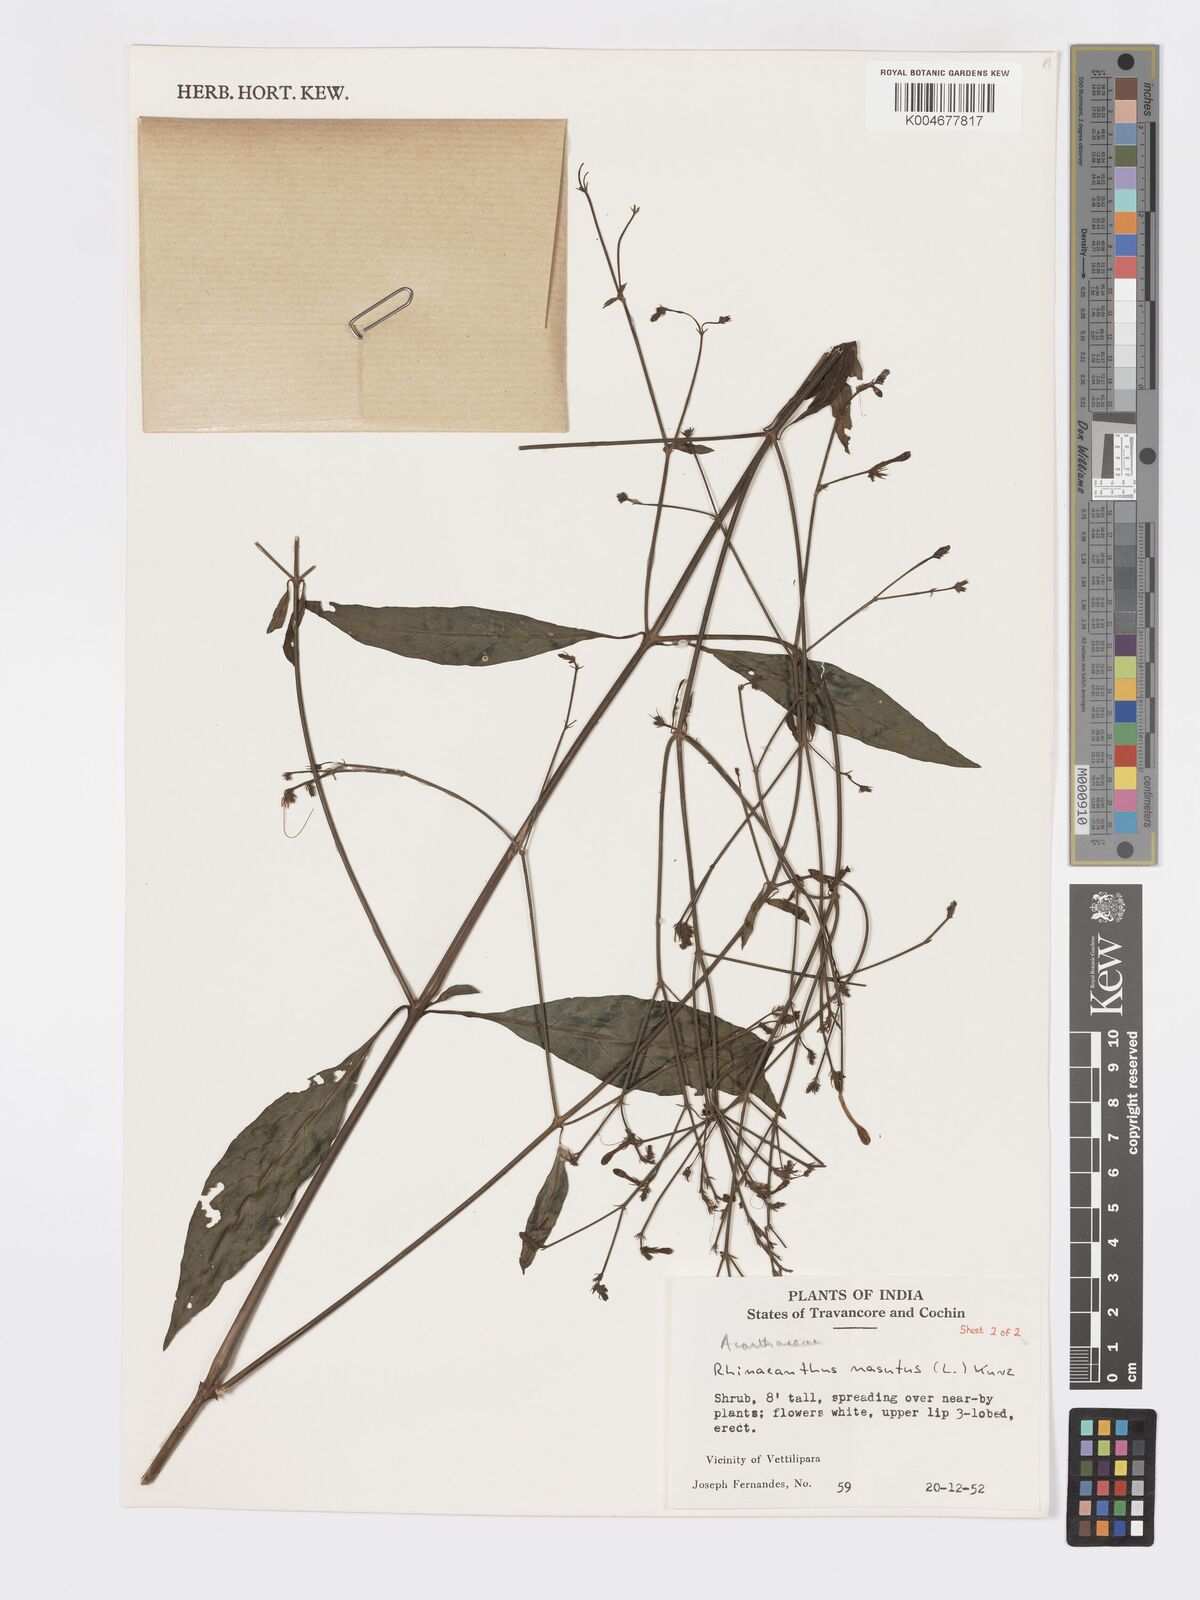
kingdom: Plantae
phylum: Tracheophyta
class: Magnoliopsida
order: Lamiales
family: Acanthaceae
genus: Rhinacanthus
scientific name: Rhinacanthus nasutus
